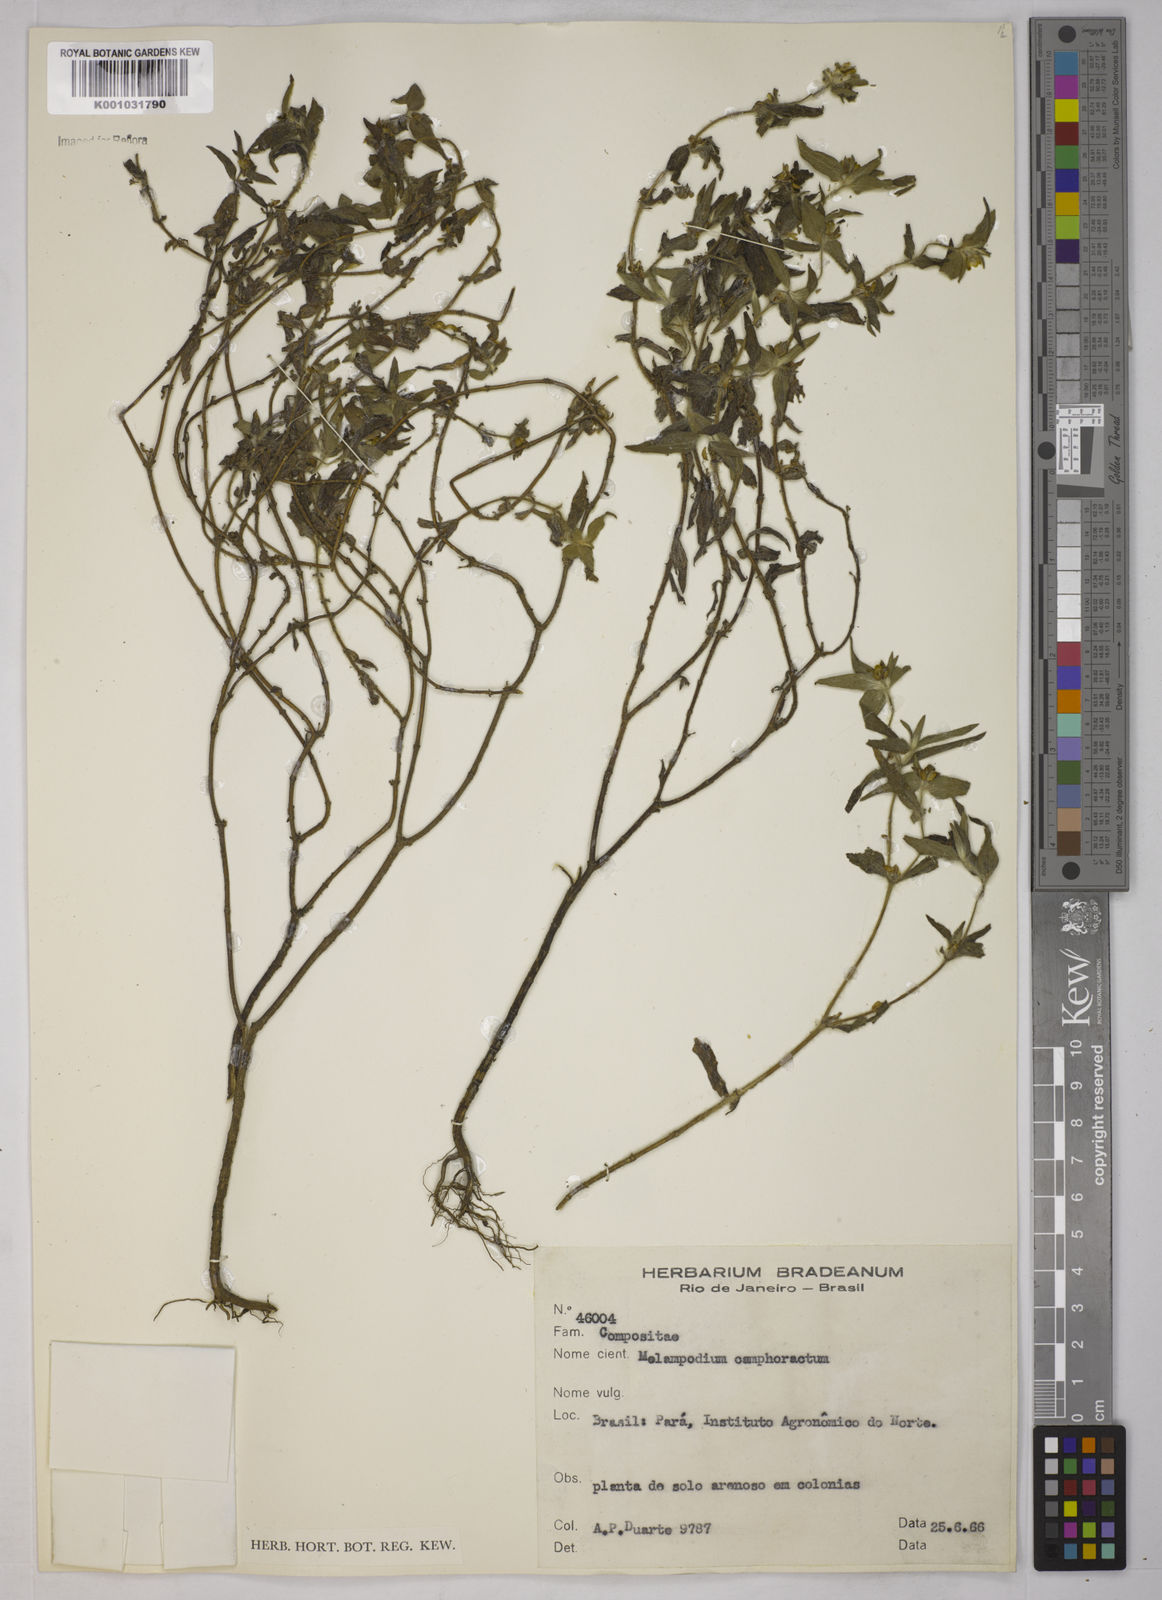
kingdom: Plantae
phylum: Tracheophyta
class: Magnoliopsida
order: Asterales
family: Asteraceae
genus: Unxia
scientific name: Unxia camphorata
